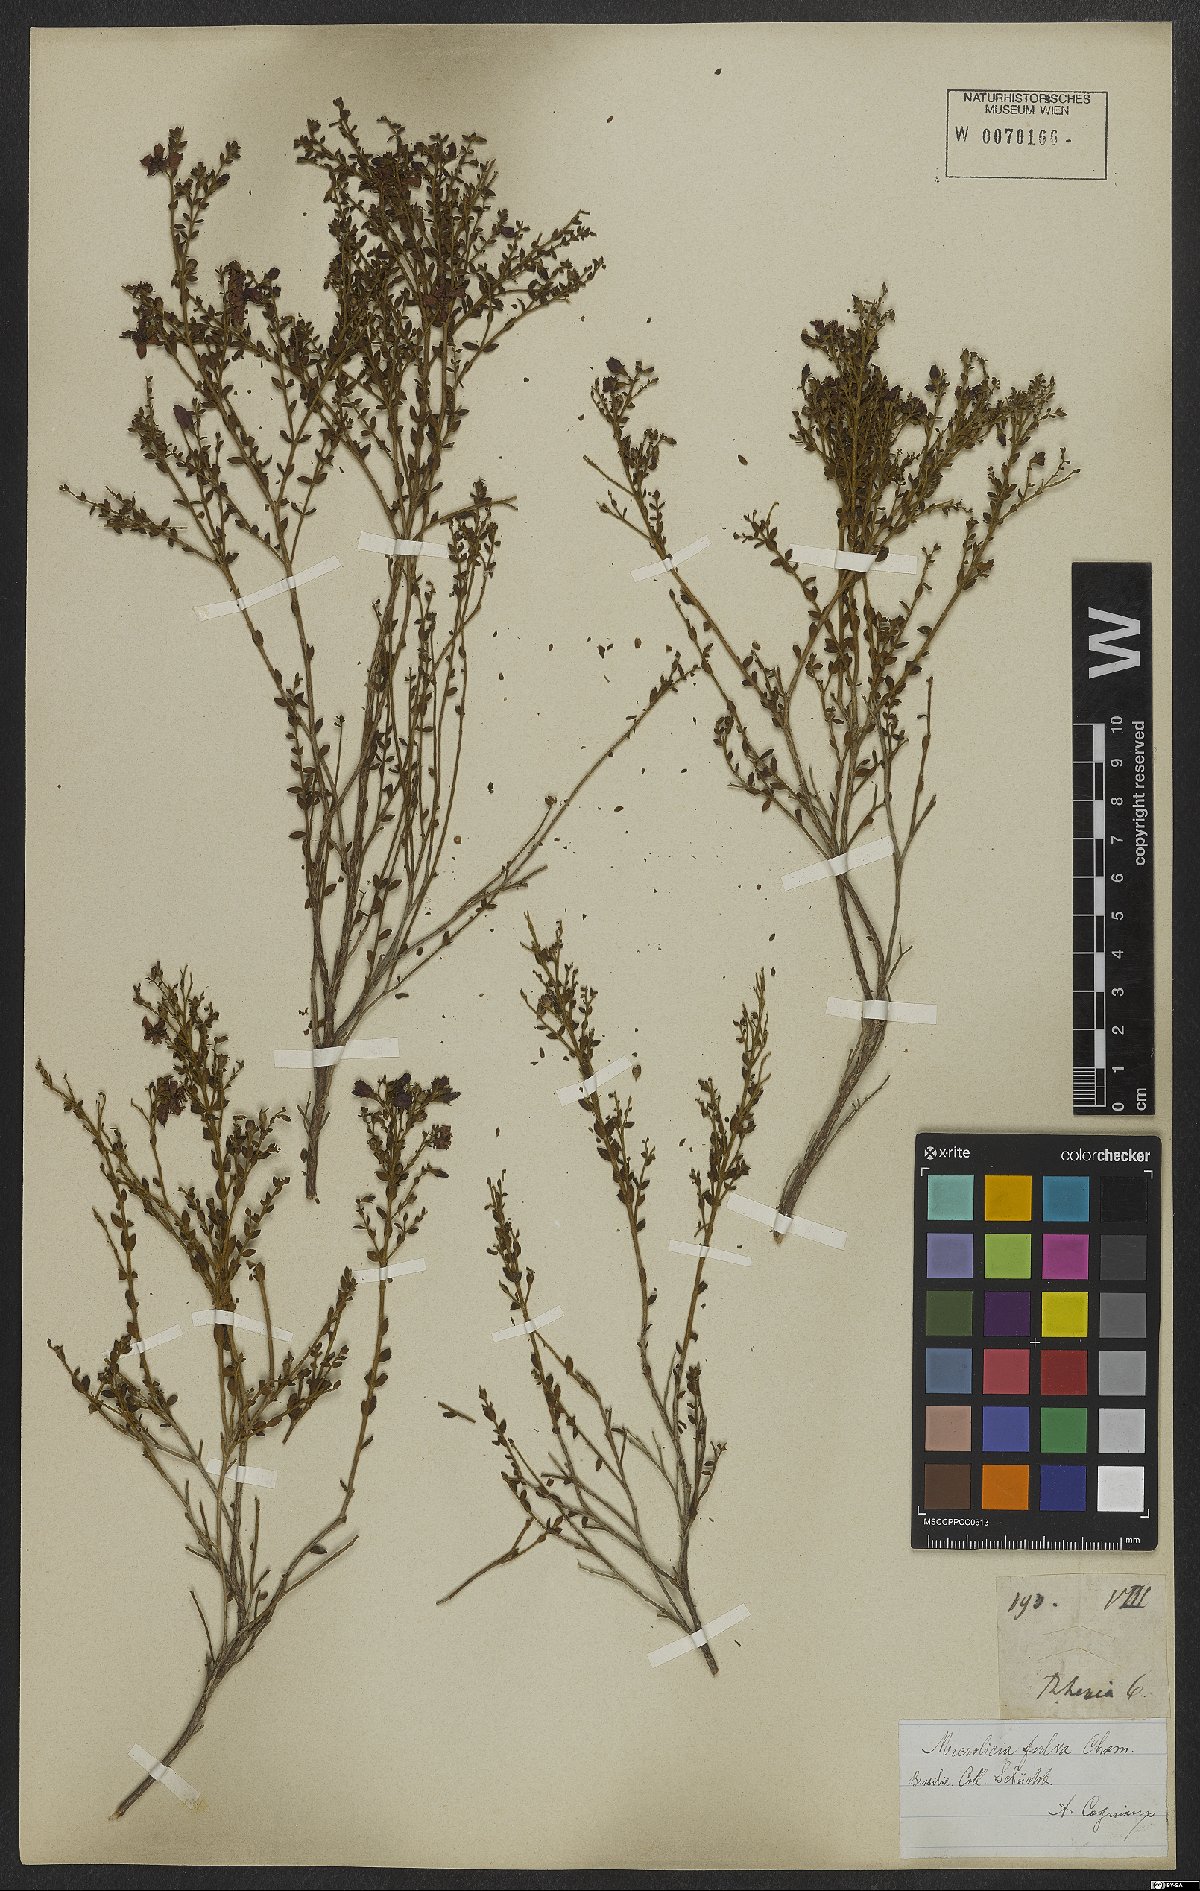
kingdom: Plantae
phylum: Tracheophyta
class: Magnoliopsida
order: Myrtales
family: Melastomataceae
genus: Microlicia
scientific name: Microlicia fulva
